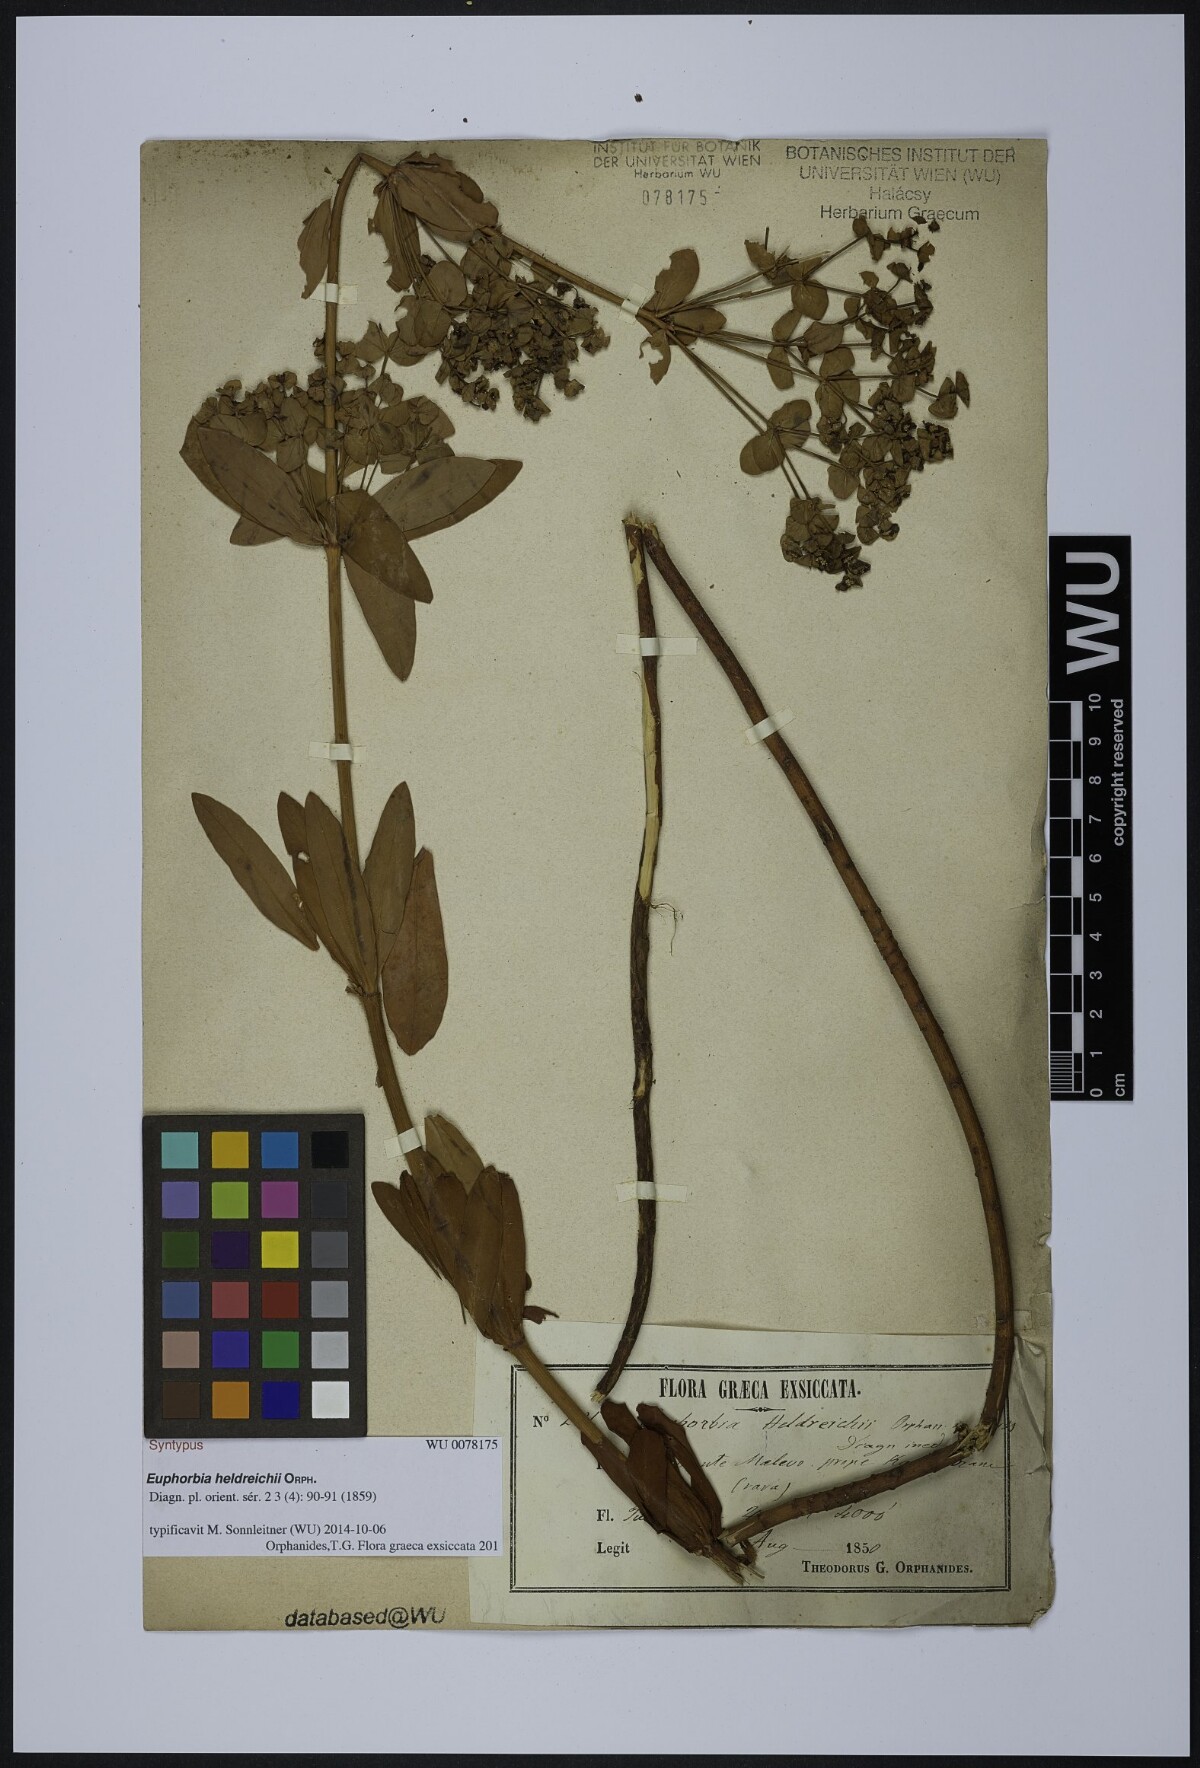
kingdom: Plantae
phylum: Tracheophyta
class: Magnoliopsida
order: Malpighiales
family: Euphorbiaceae
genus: Euphorbia
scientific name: Euphorbia heldreichii
